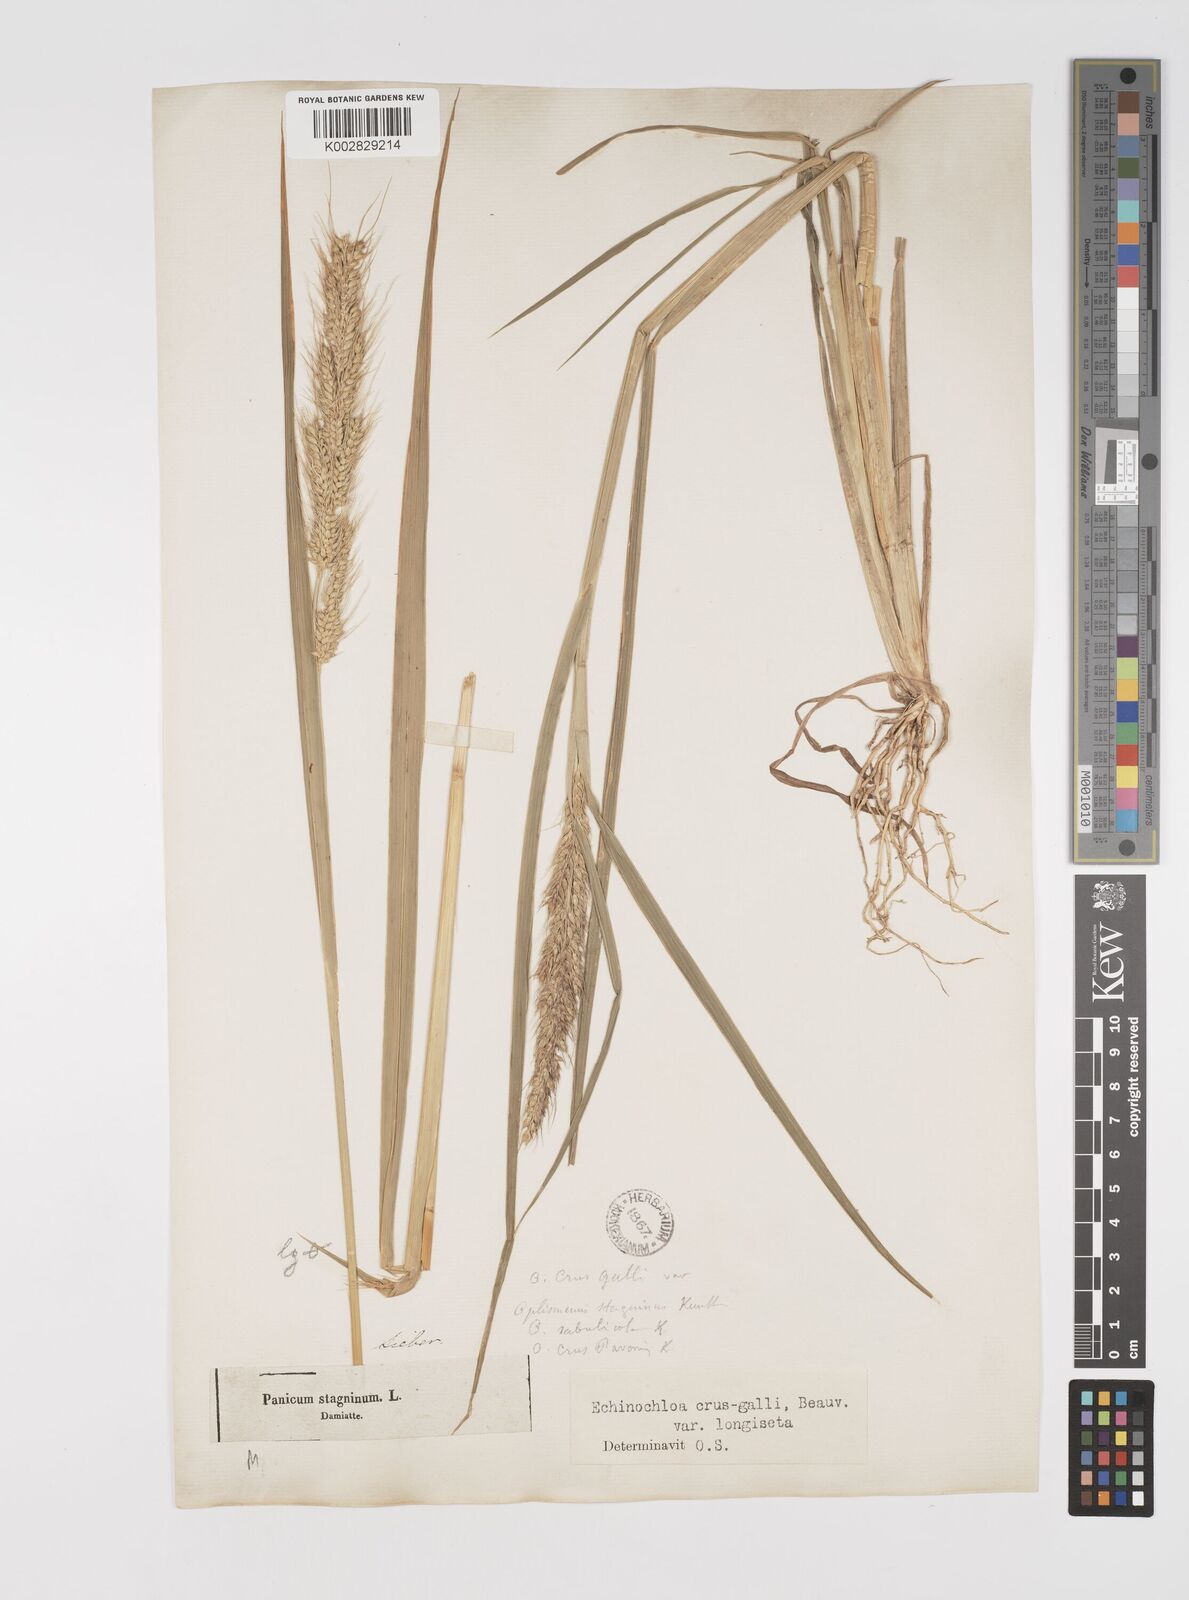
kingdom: Plantae
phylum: Tracheophyta
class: Liliopsida
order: Poales
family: Poaceae
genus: Echinochloa
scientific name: Echinochloa crus-galli
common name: Cockspur
